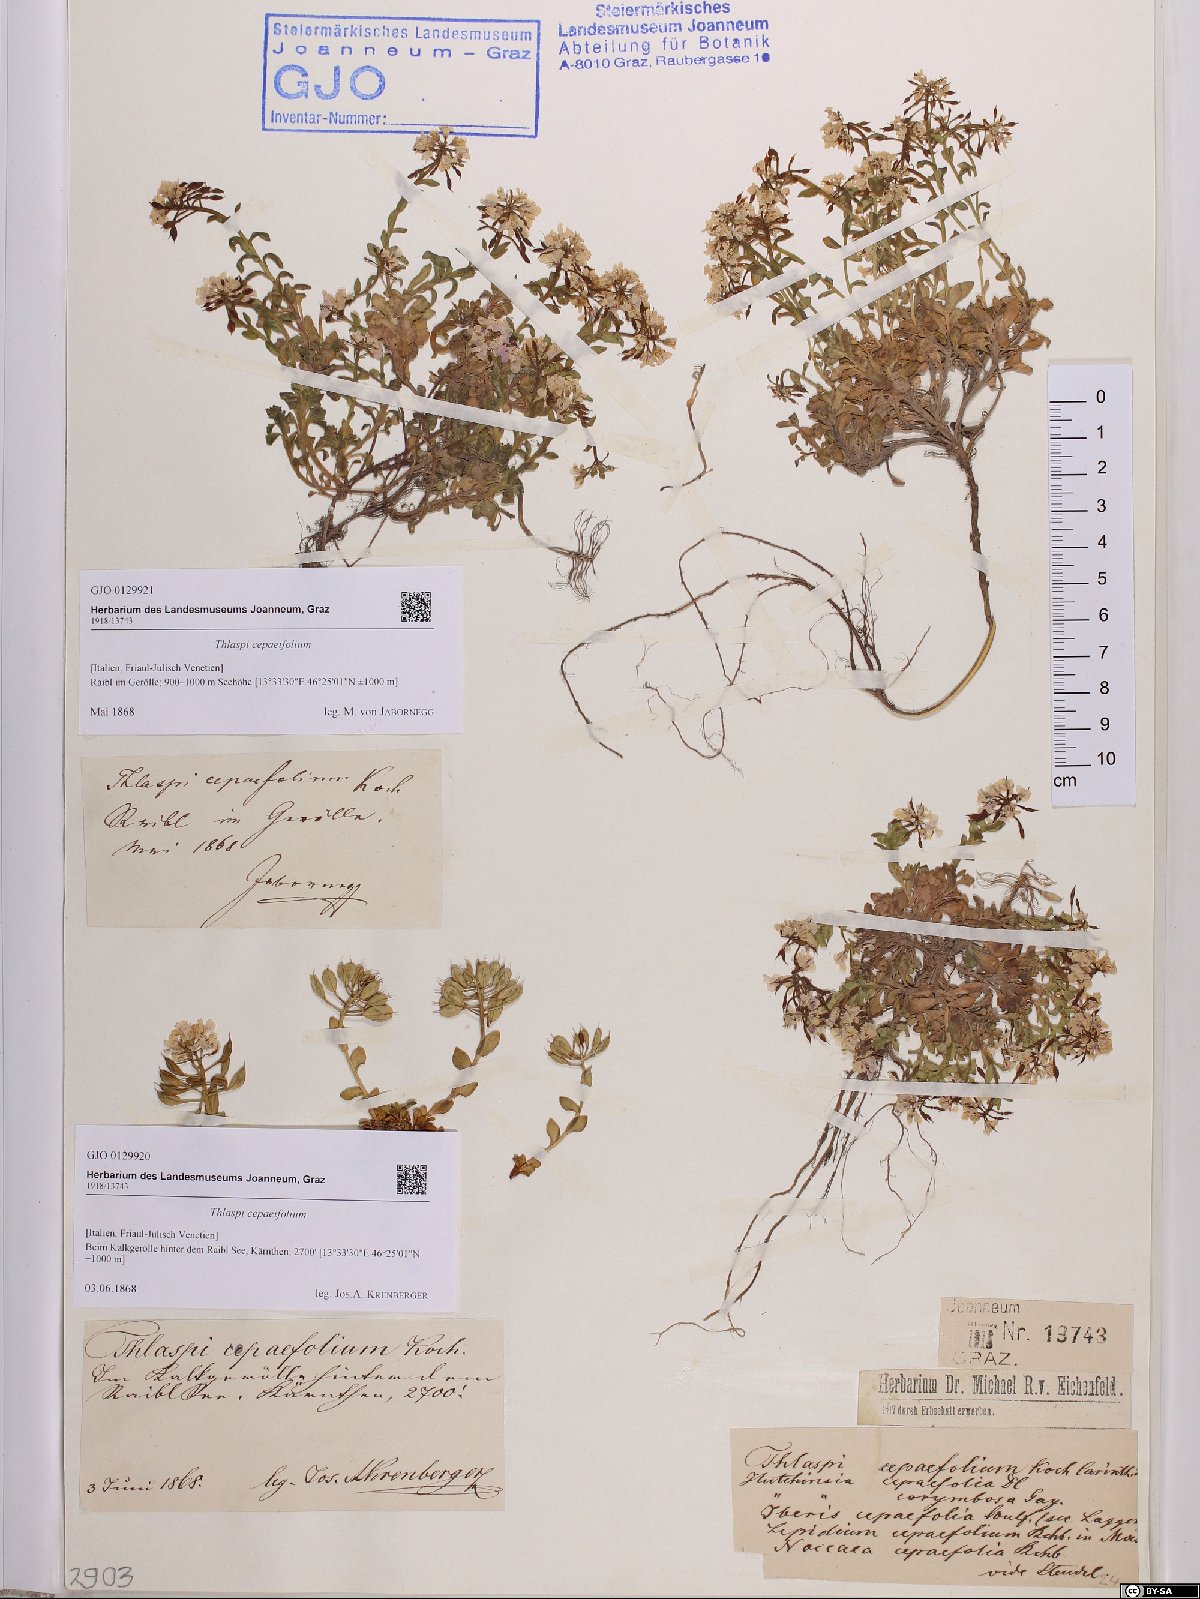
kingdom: Plantae
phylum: Tracheophyta
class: Magnoliopsida
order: Brassicales
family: Brassicaceae
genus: Noccaea
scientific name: Noccaea cepaeifolia
